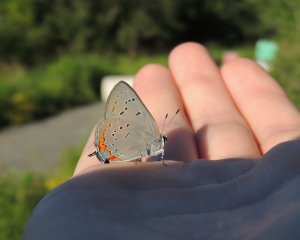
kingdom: Animalia
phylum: Arthropoda
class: Insecta
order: Lepidoptera
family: Lycaenidae
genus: Strymon
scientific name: Strymon acadica
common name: Acadian Hairstreak
